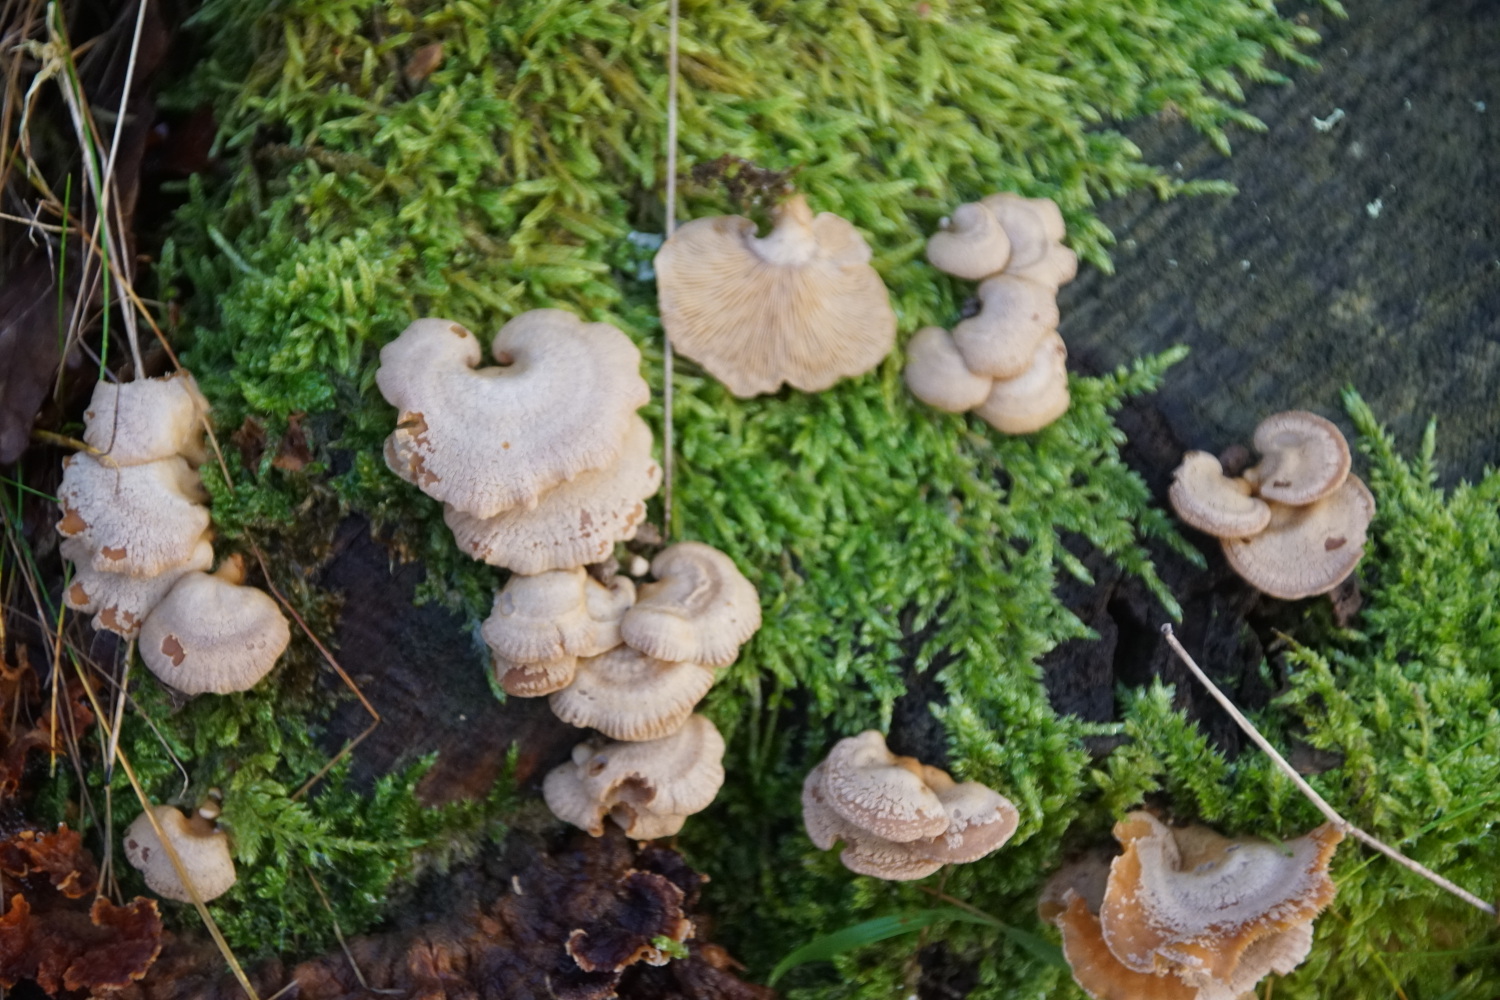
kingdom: Fungi
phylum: Basidiomycota
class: Agaricomycetes
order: Agaricales
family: Mycenaceae
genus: Panellus
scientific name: Panellus stipticus
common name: kliddet epaulethat
